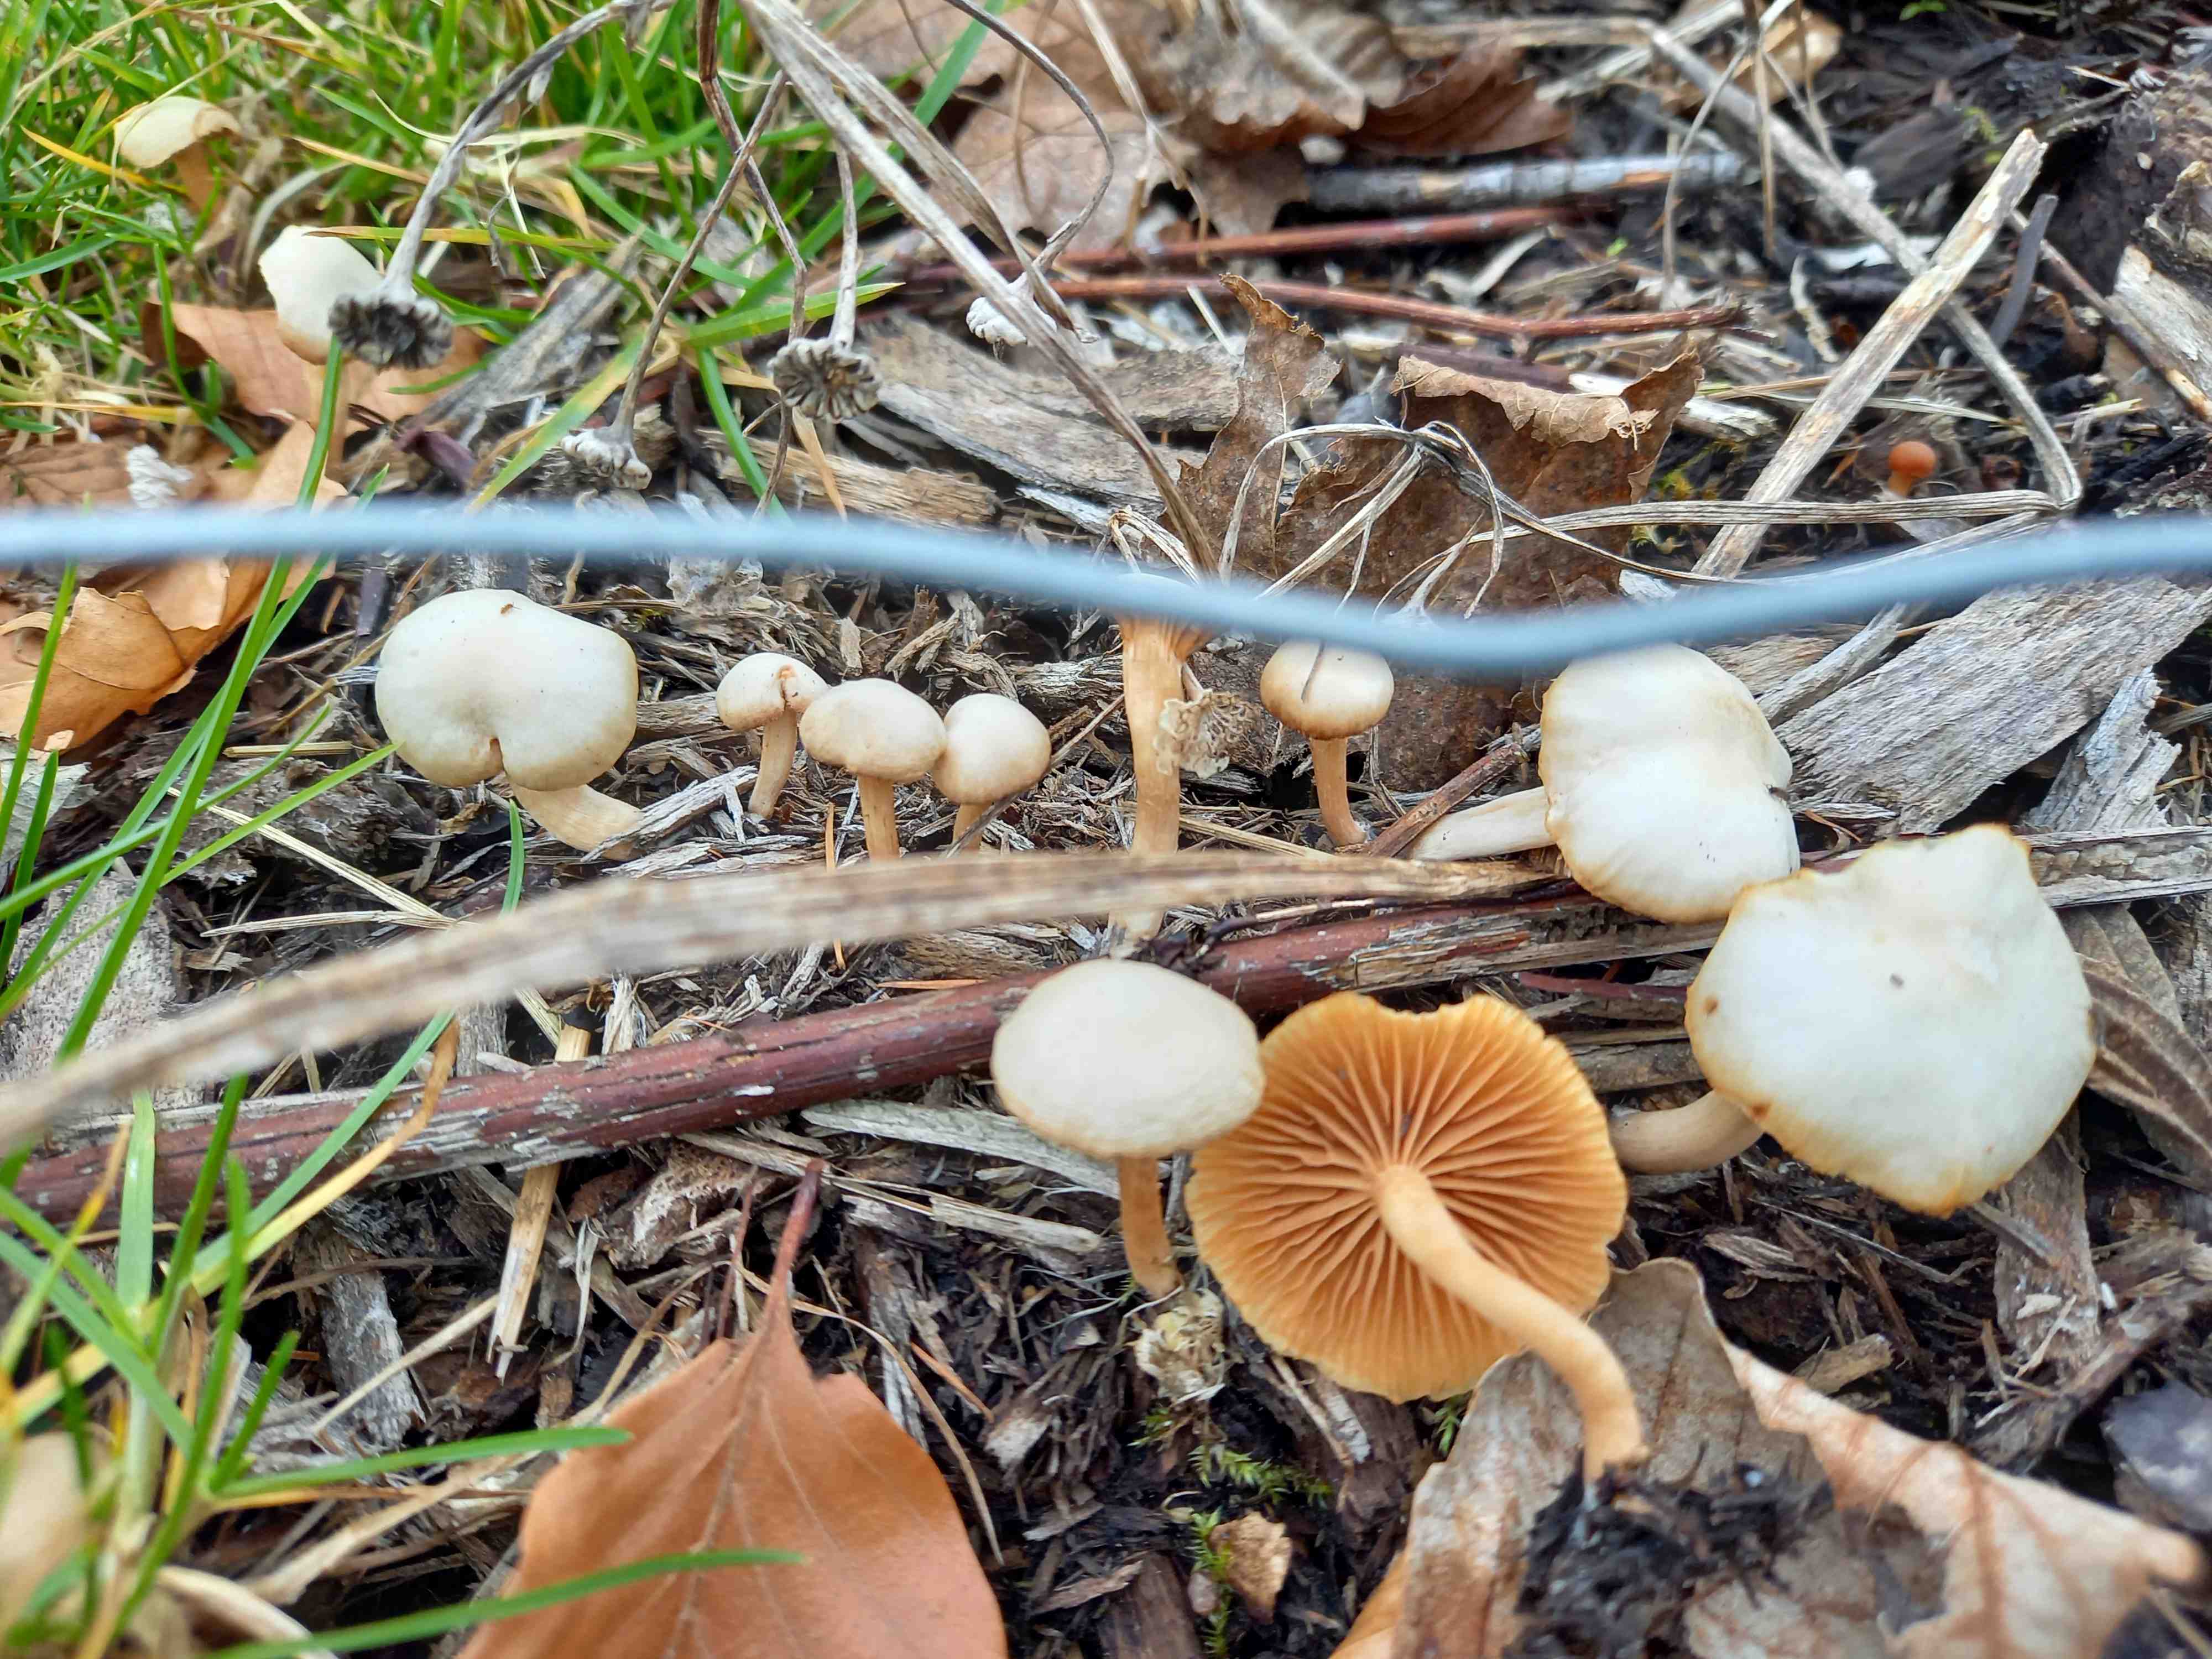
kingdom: Fungi
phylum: Basidiomycota
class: Agaricomycetes
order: Agaricales
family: Tubariaceae
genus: Tubaria
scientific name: Tubaria furfuracea
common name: kliddet fnughat
